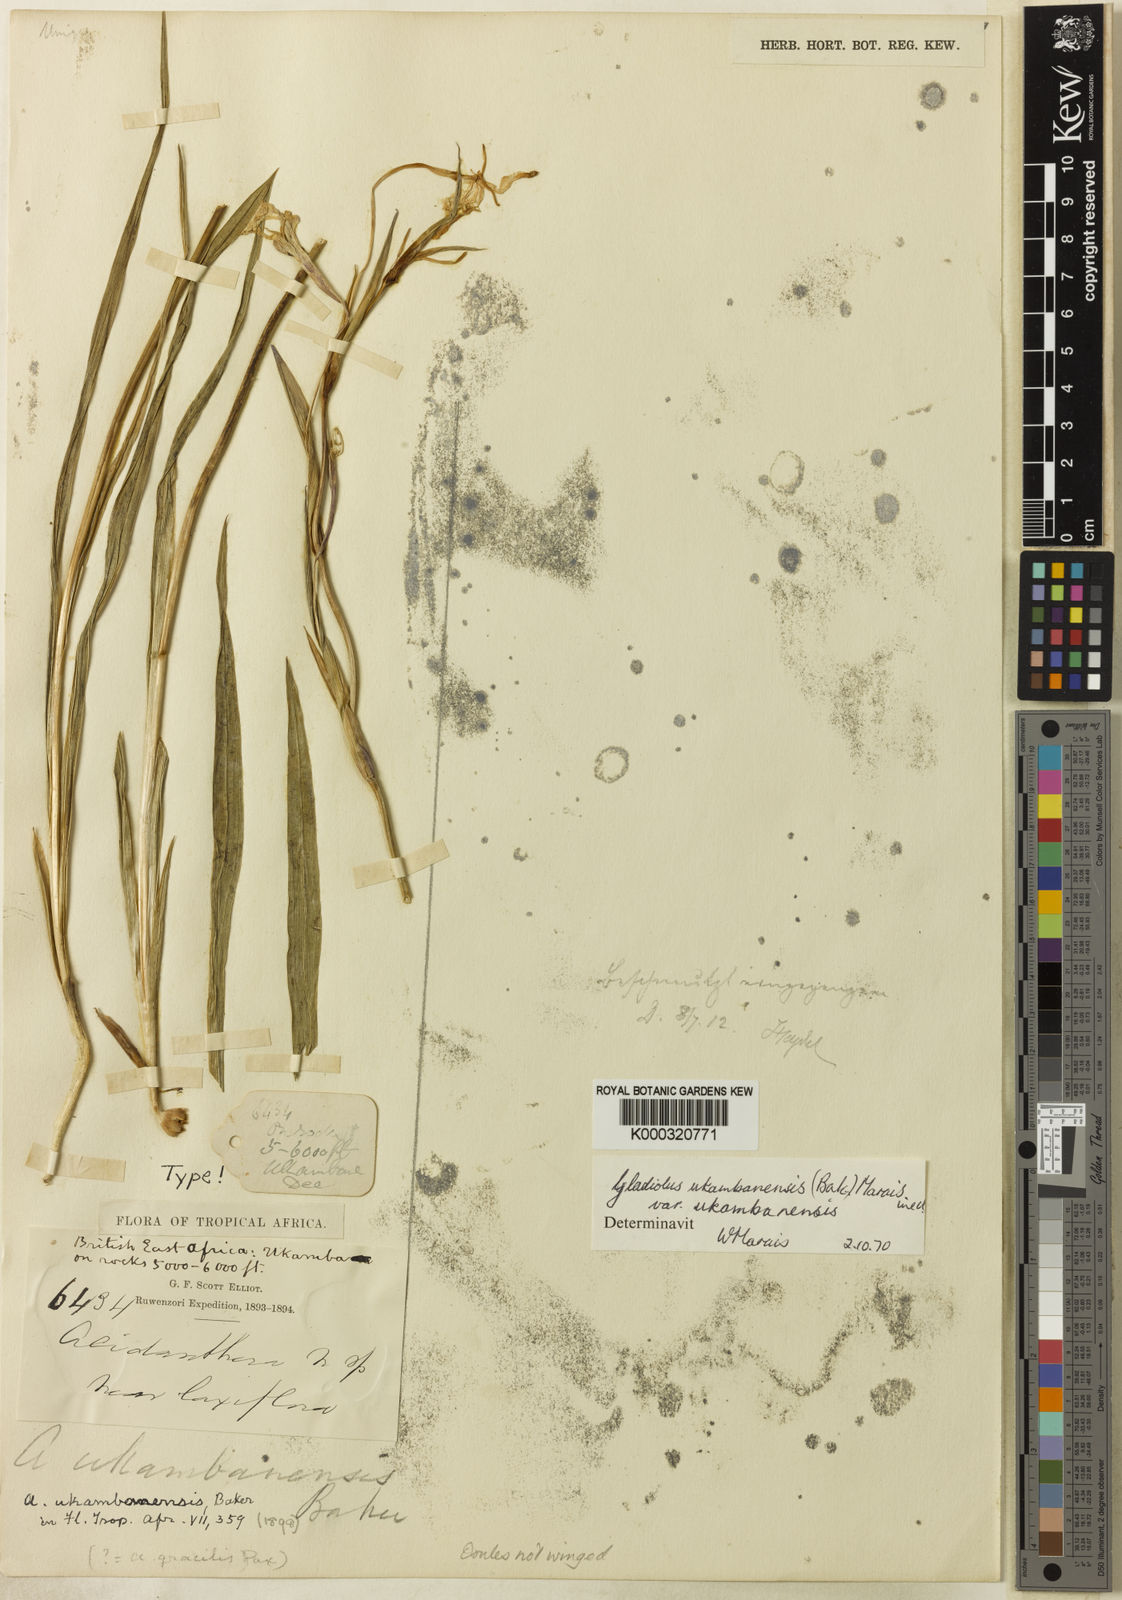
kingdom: Plantae
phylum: Tracheophyta
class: Liliopsida
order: Asparagales
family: Iridaceae
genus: Gladiolus
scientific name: Gladiolus candidus
